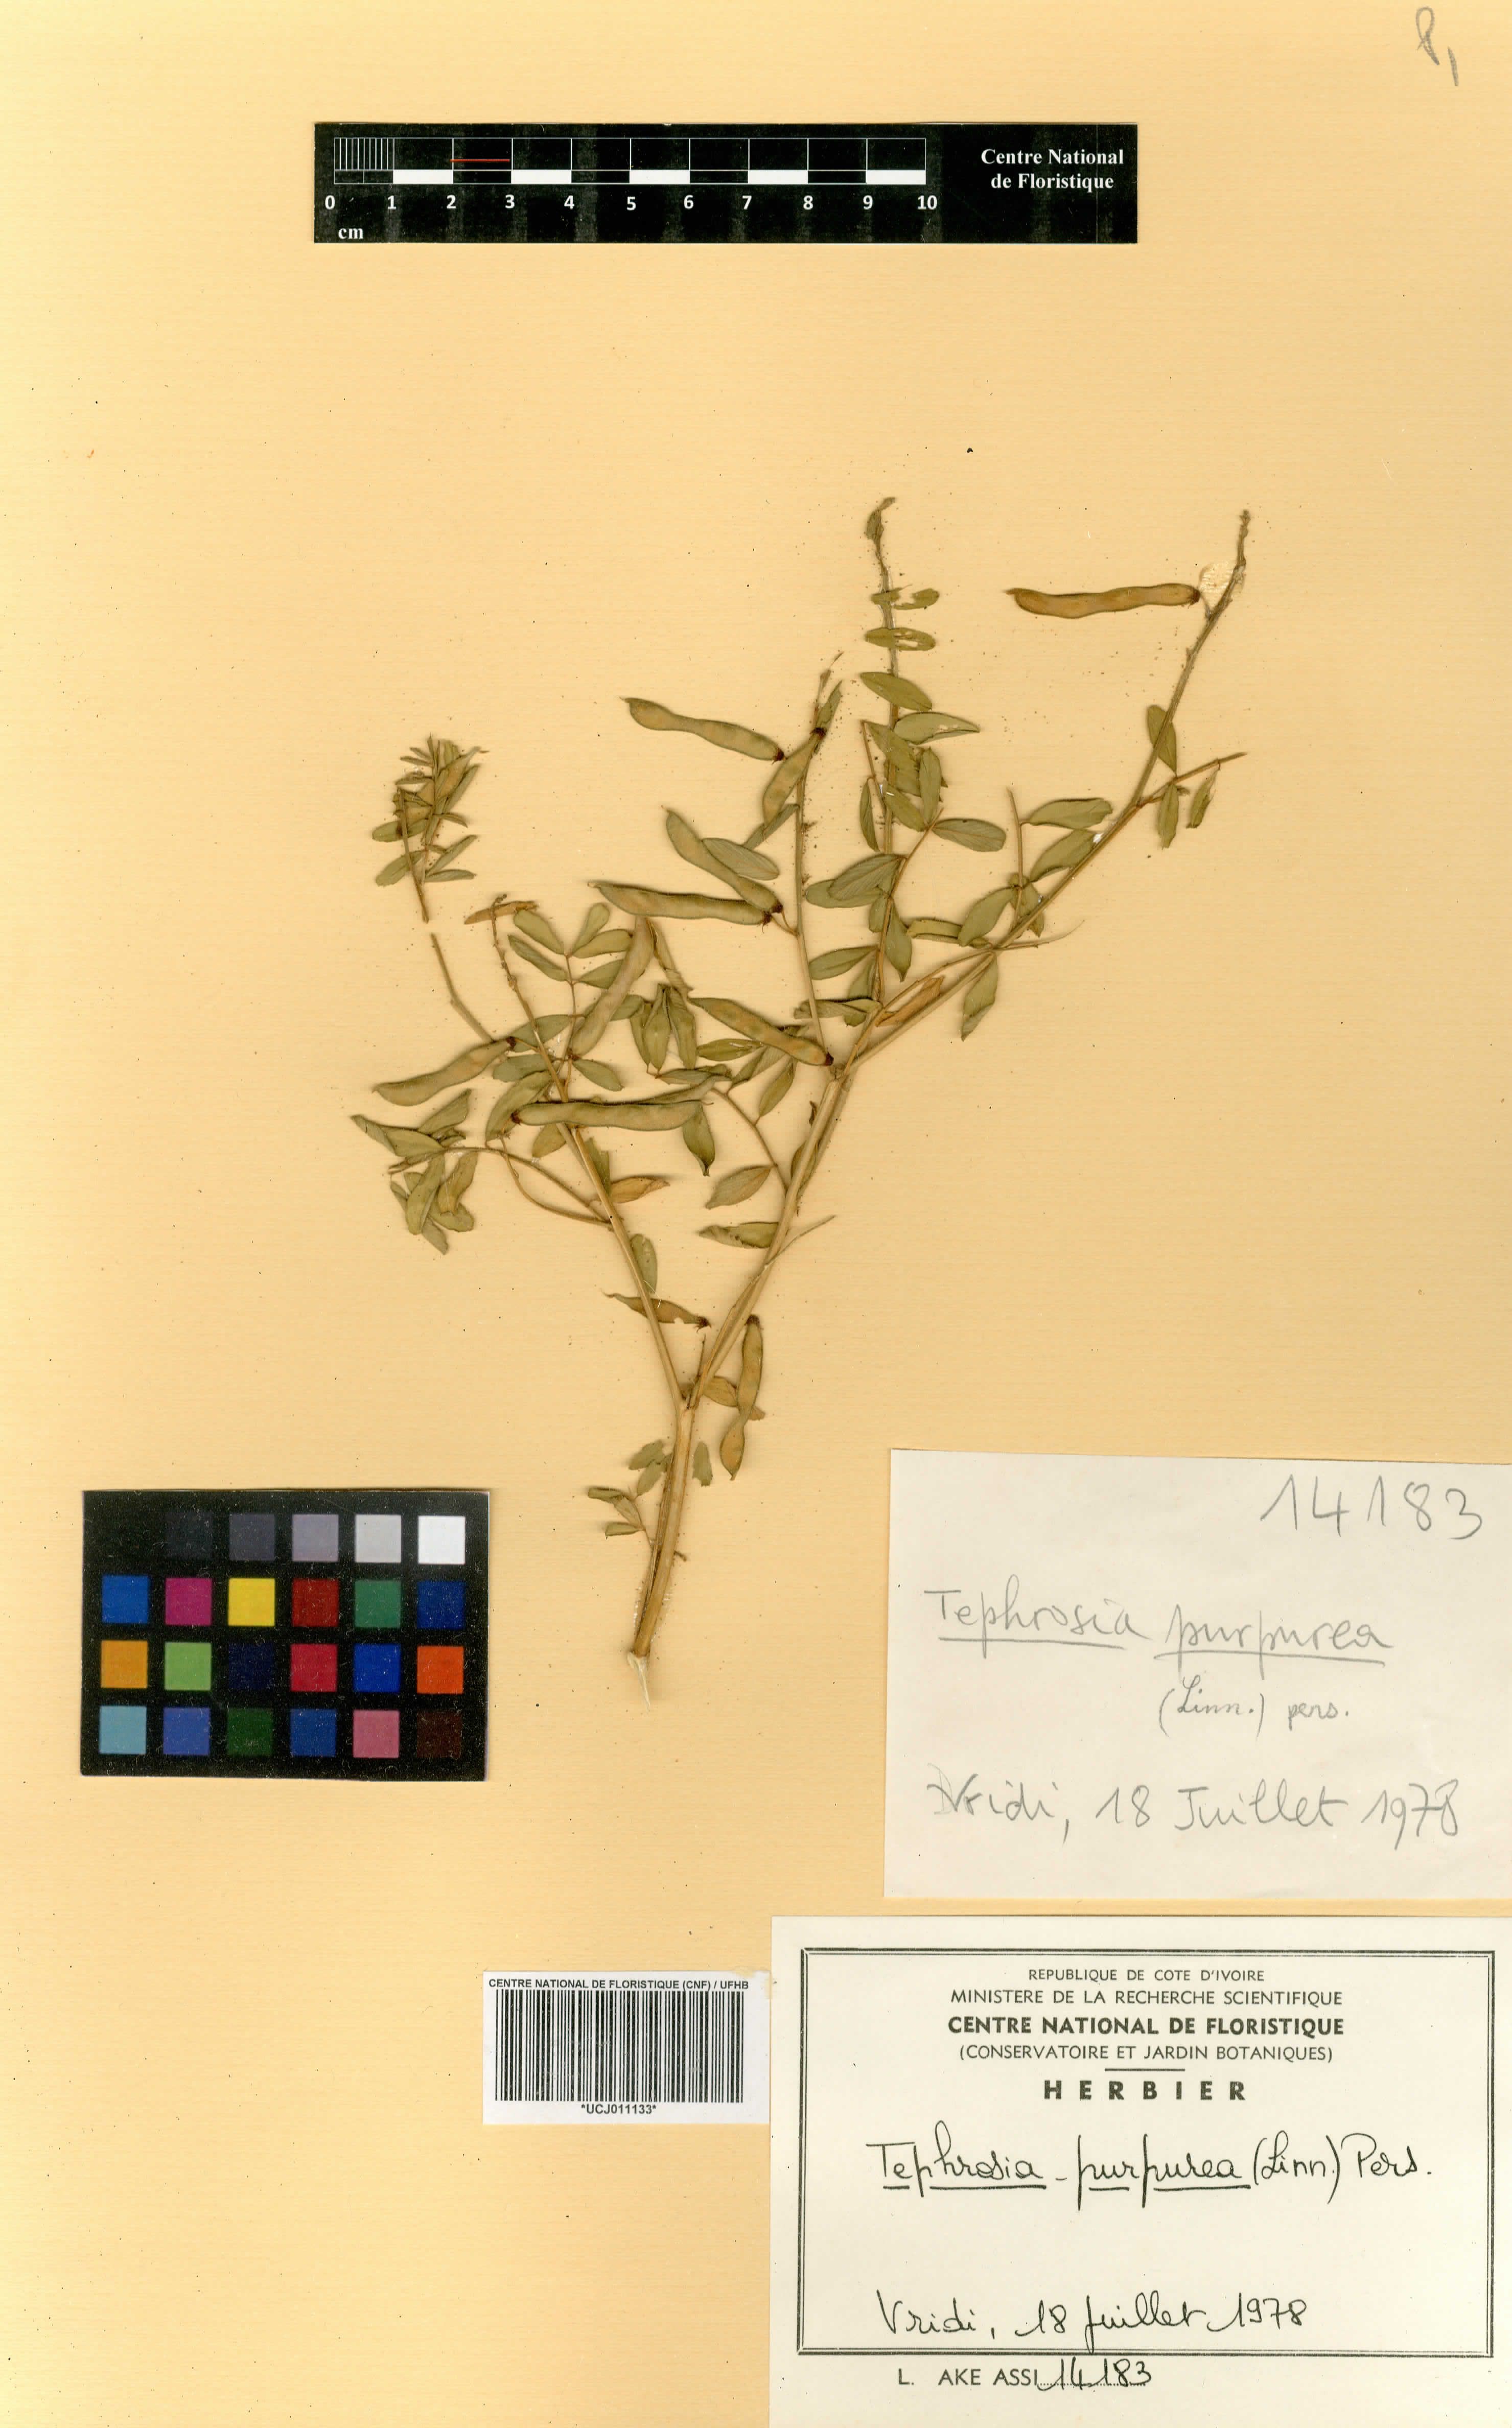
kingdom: Plantae
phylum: Tracheophyta
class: Magnoliopsida
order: Fabales
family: Fabaceae
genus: Tephrosia
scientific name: Tephrosia purpurea
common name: Fishpoison
